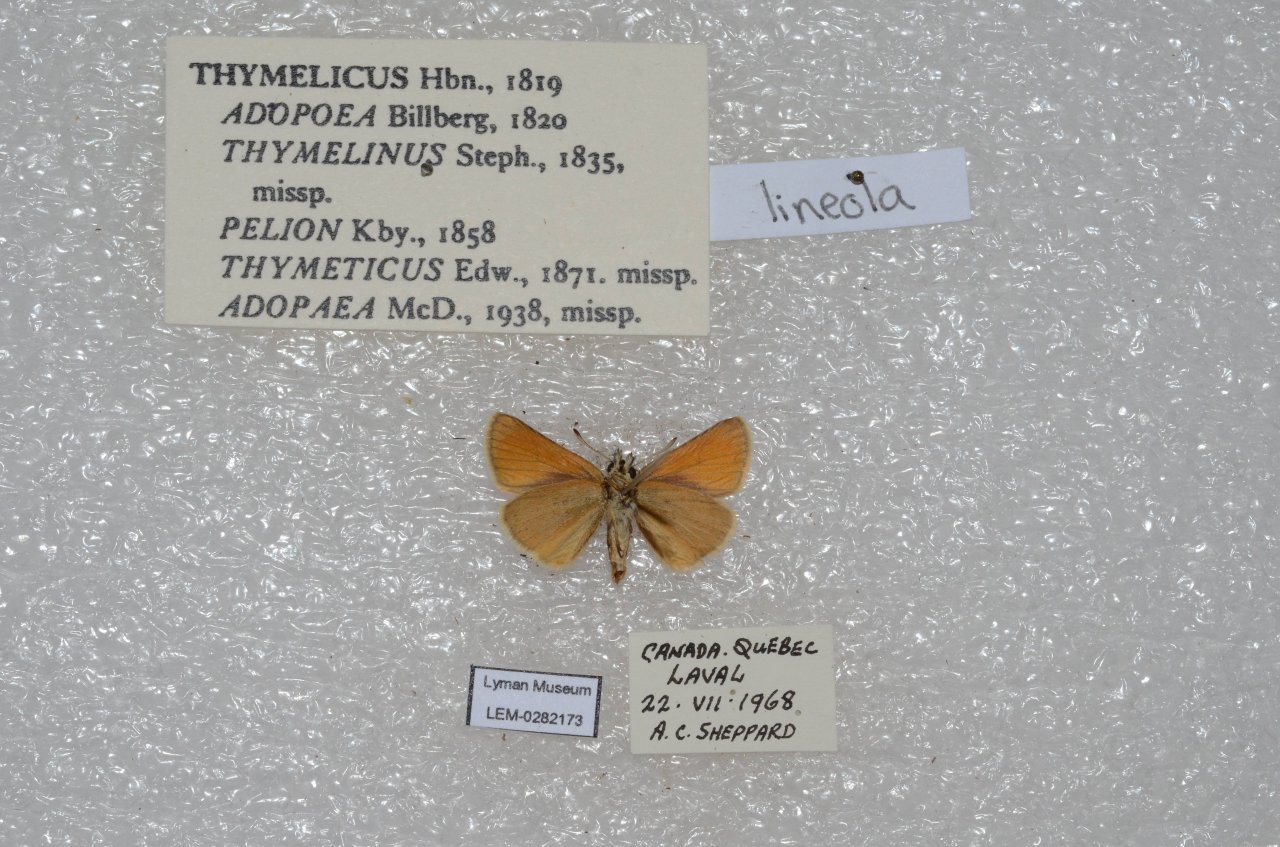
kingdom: Animalia
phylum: Arthropoda
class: Insecta
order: Lepidoptera
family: Hesperiidae
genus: Thymelicus
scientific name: Thymelicus lineola
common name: European Skipper
